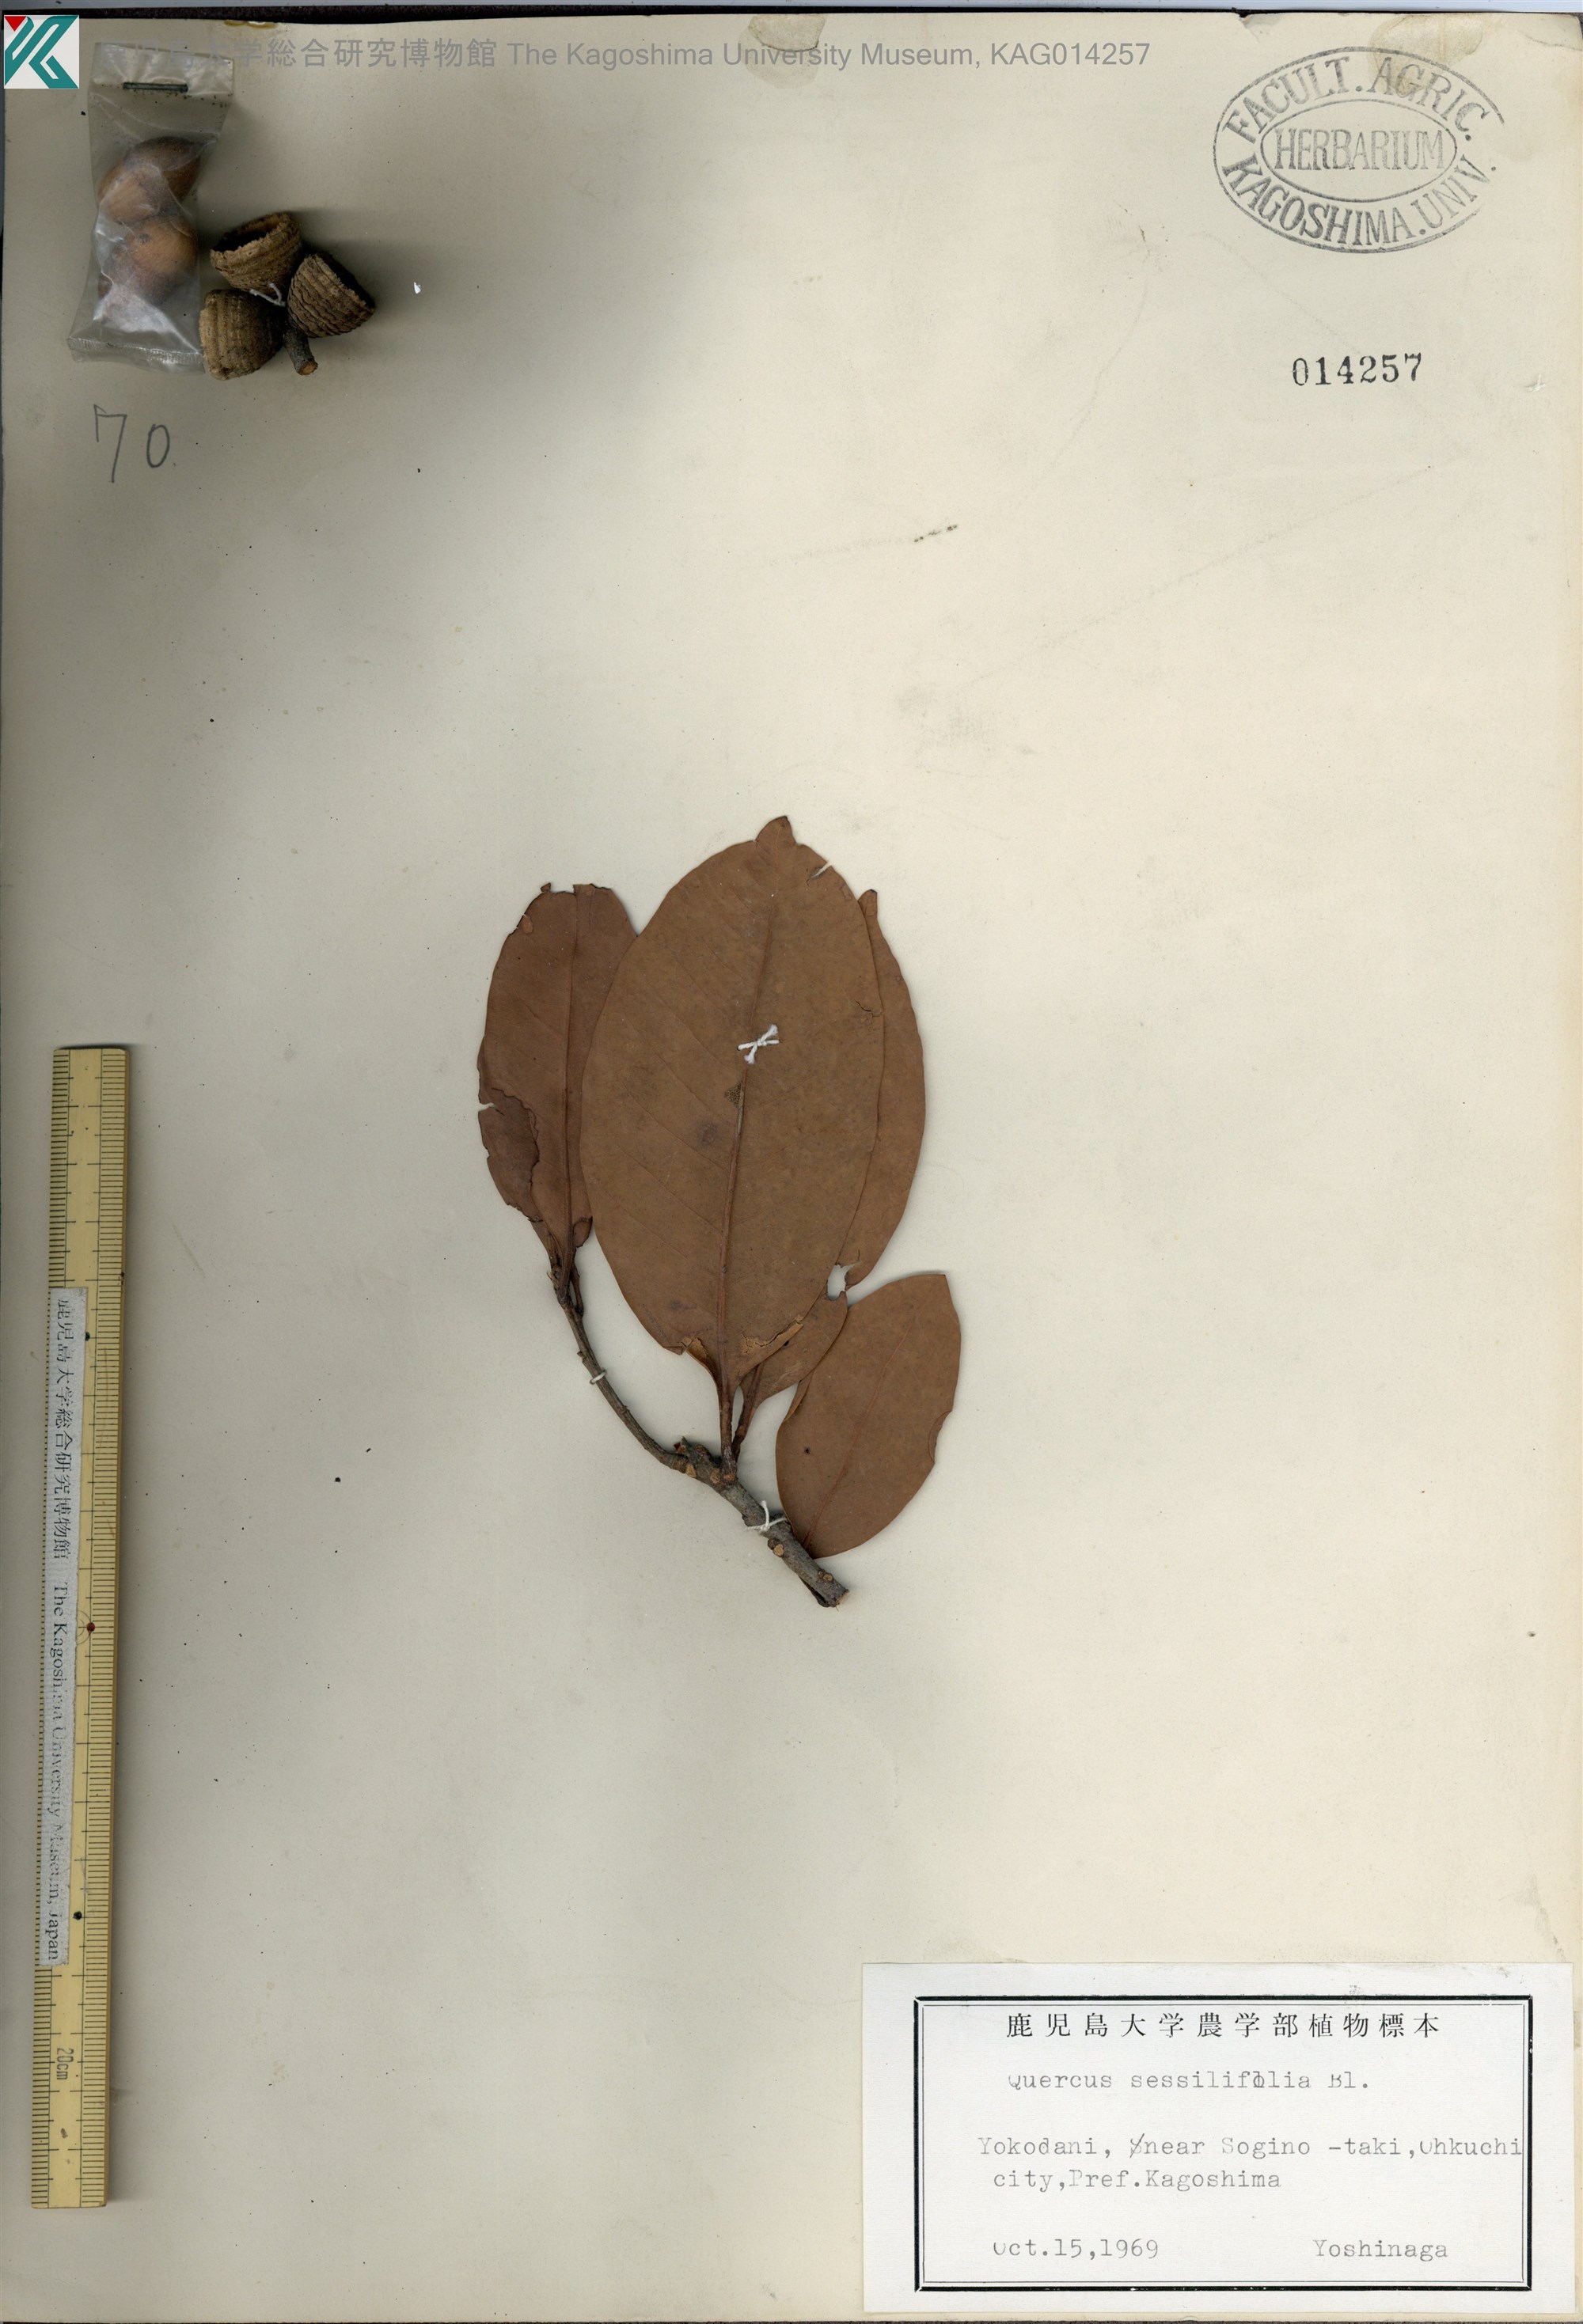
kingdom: Plantae
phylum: Tracheophyta
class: Magnoliopsida
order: Fagales
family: Fagaceae
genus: Quercus
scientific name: Quercus sessilifolia
